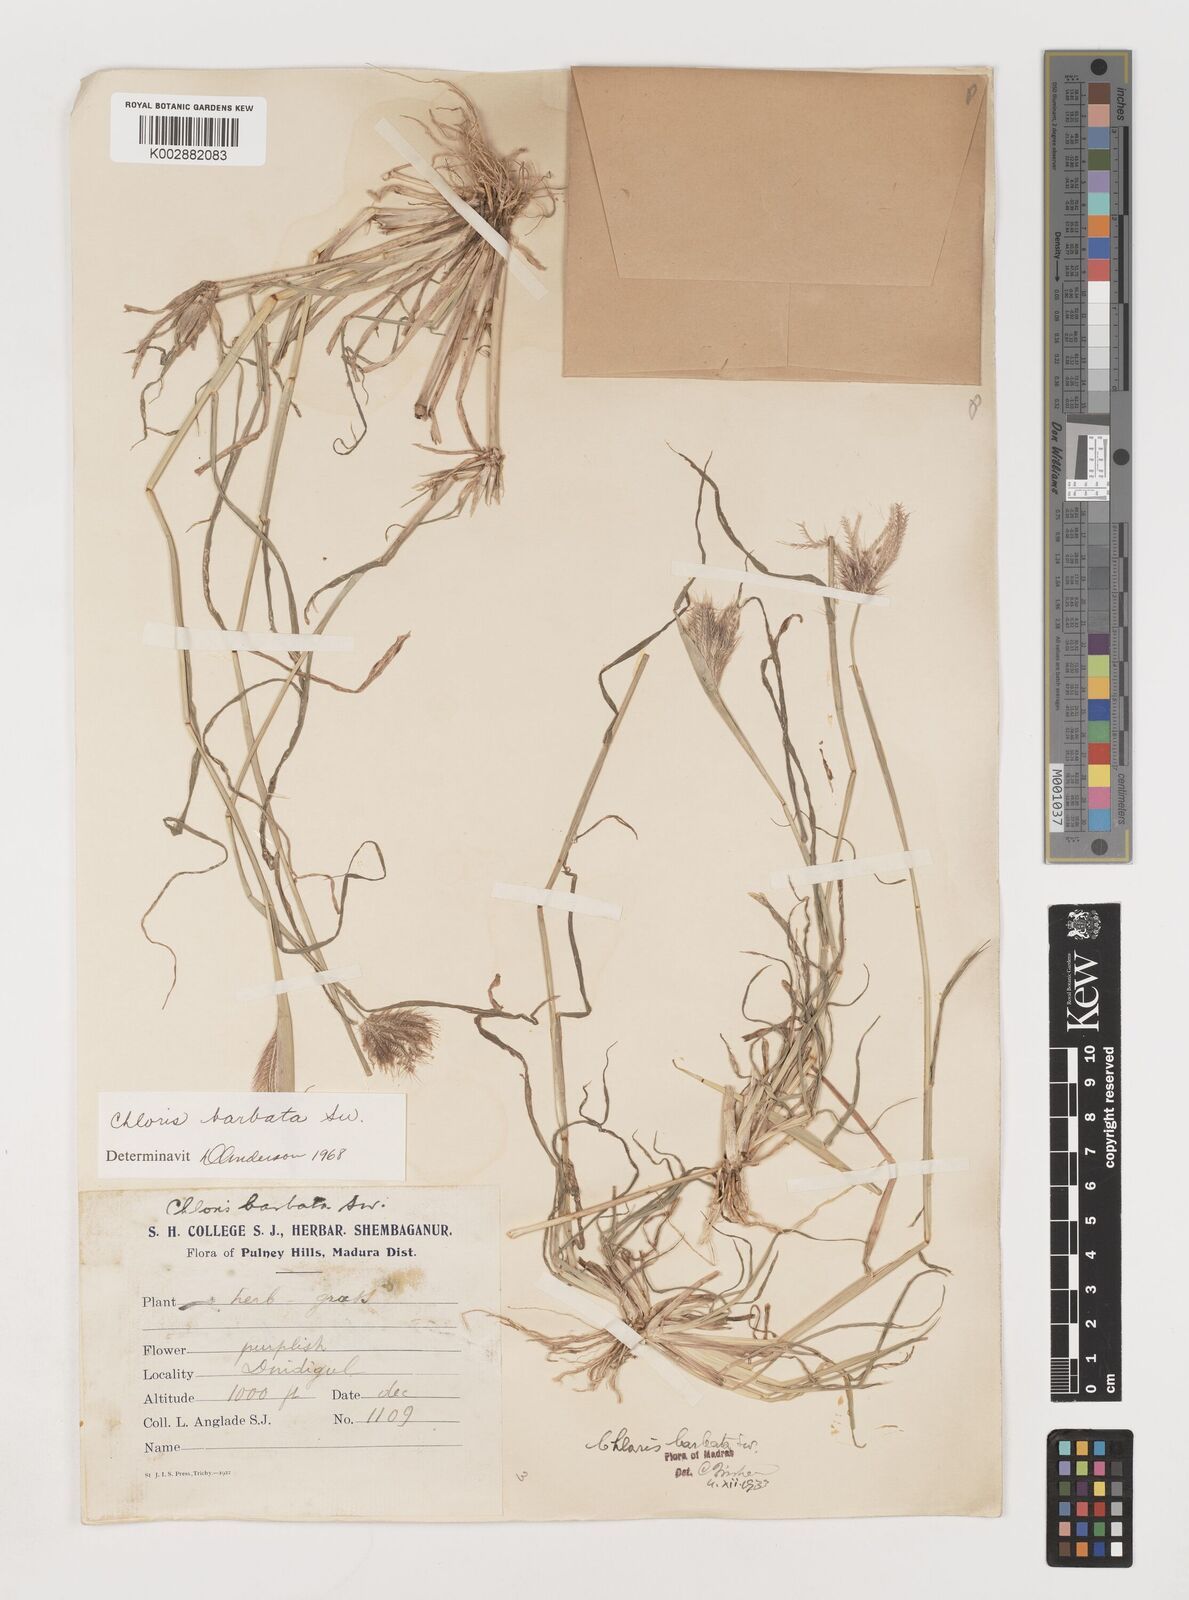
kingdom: Plantae
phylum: Tracheophyta
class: Liliopsida
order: Poales
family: Poaceae
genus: Chloris
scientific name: Chloris barbata
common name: Swollen fingergrass
